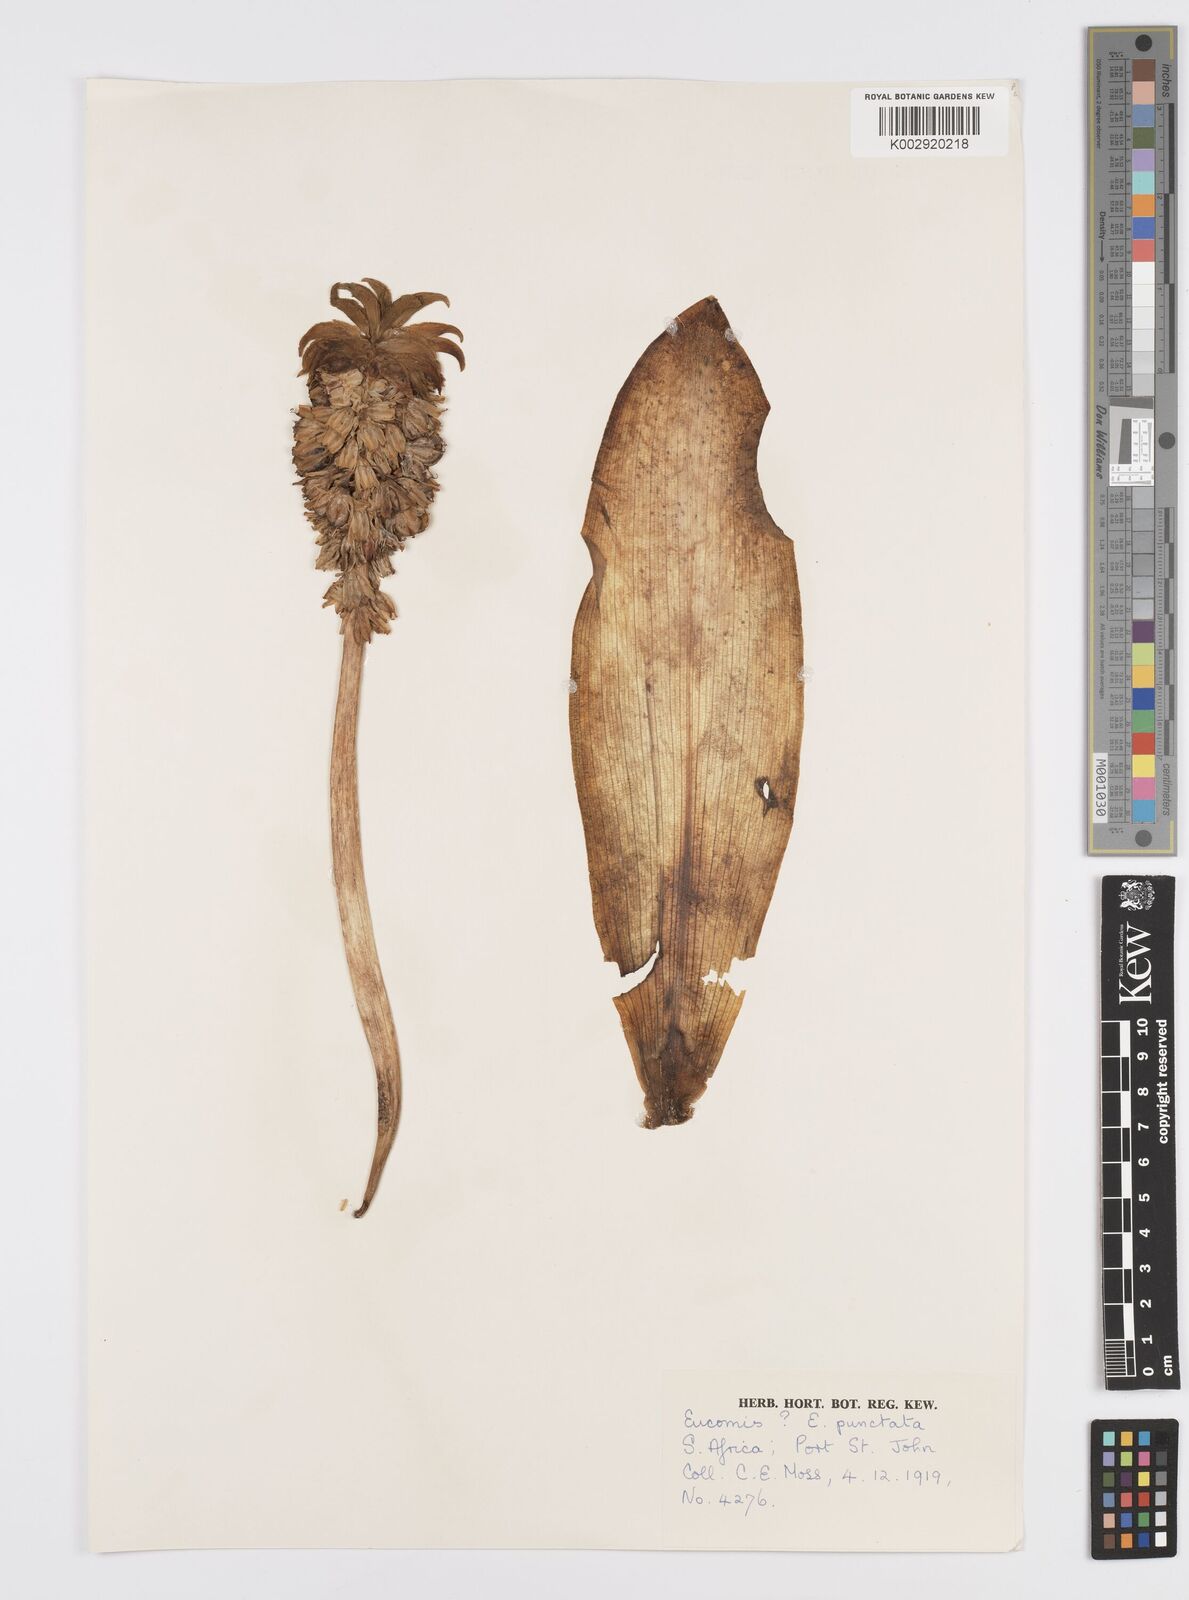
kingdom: Plantae
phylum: Tracheophyta
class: Liliopsida
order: Asparagales
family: Asparagaceae
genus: Eucomis
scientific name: Eucomis
